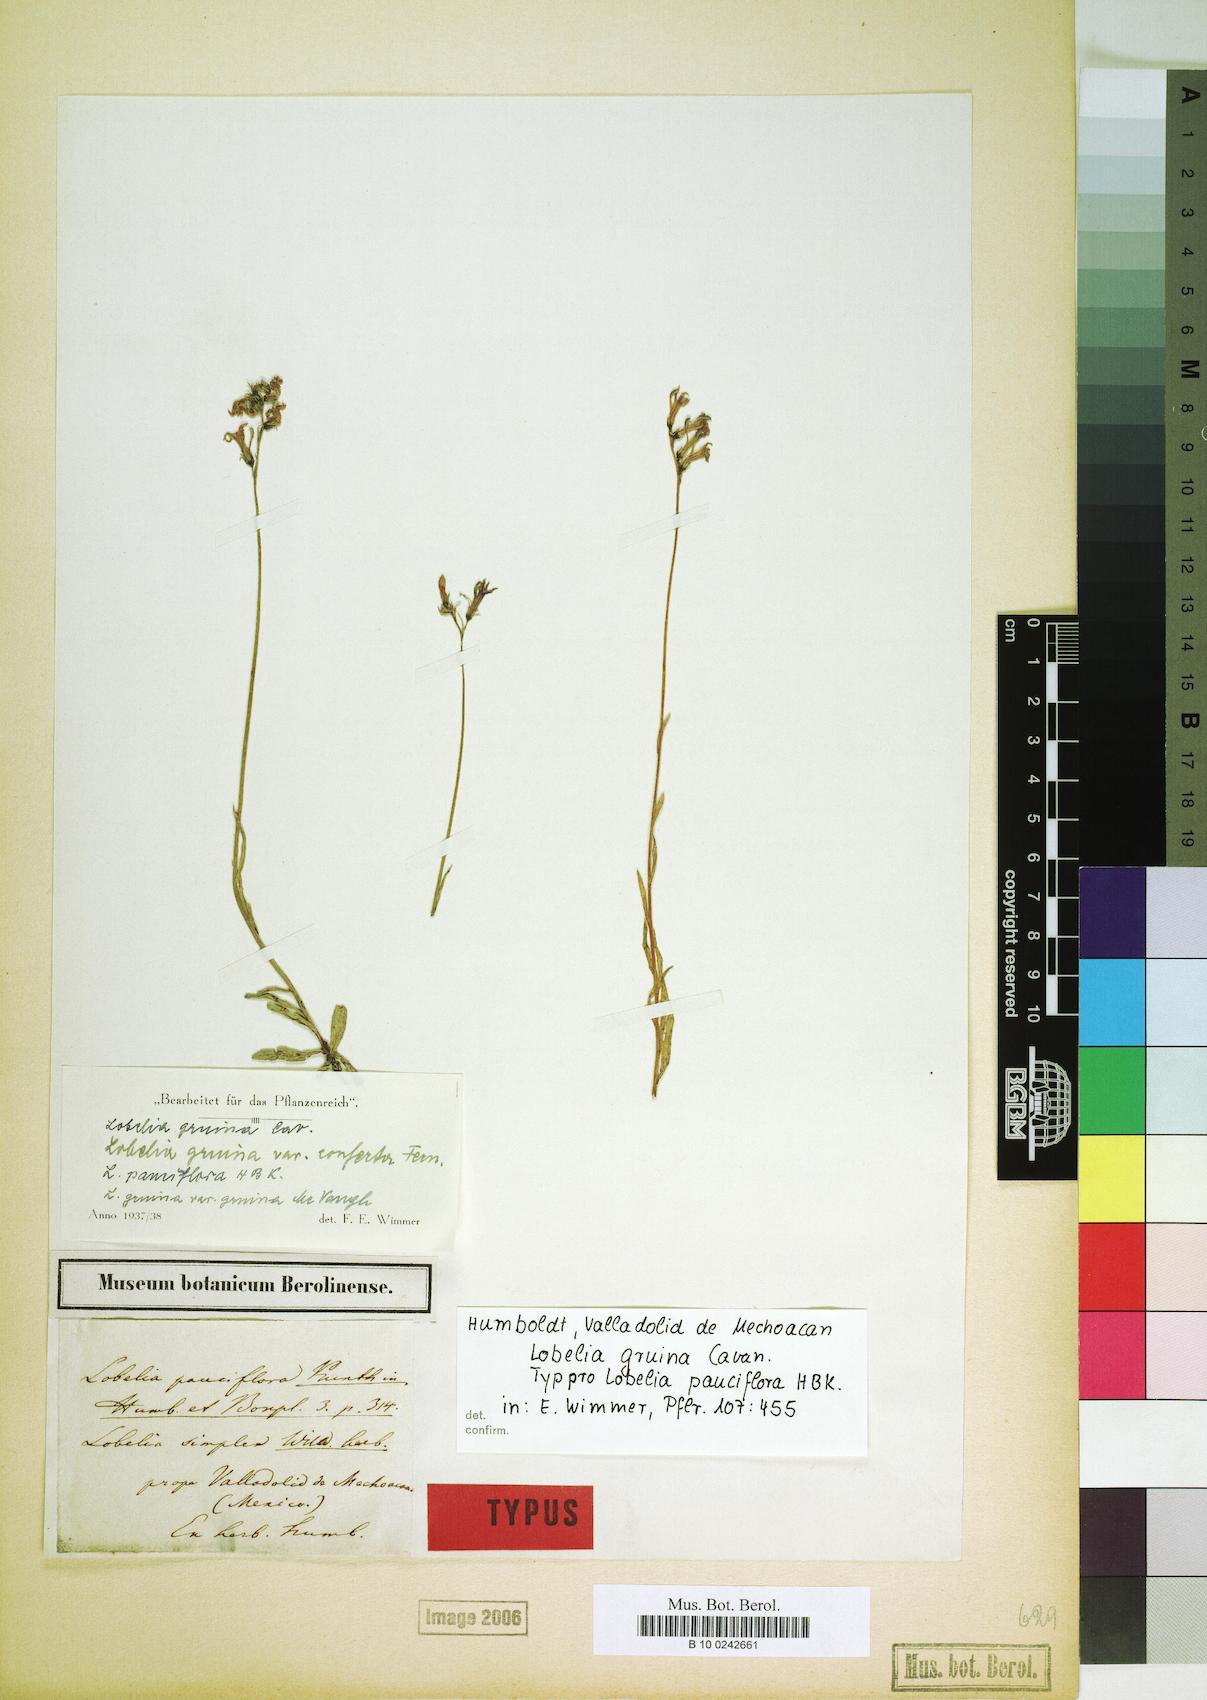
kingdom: Plantae
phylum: Tracheophyta
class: Magnoliopsida
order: Asterales
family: Campanulaceae
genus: Lobelia
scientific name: Lobelia gruina
